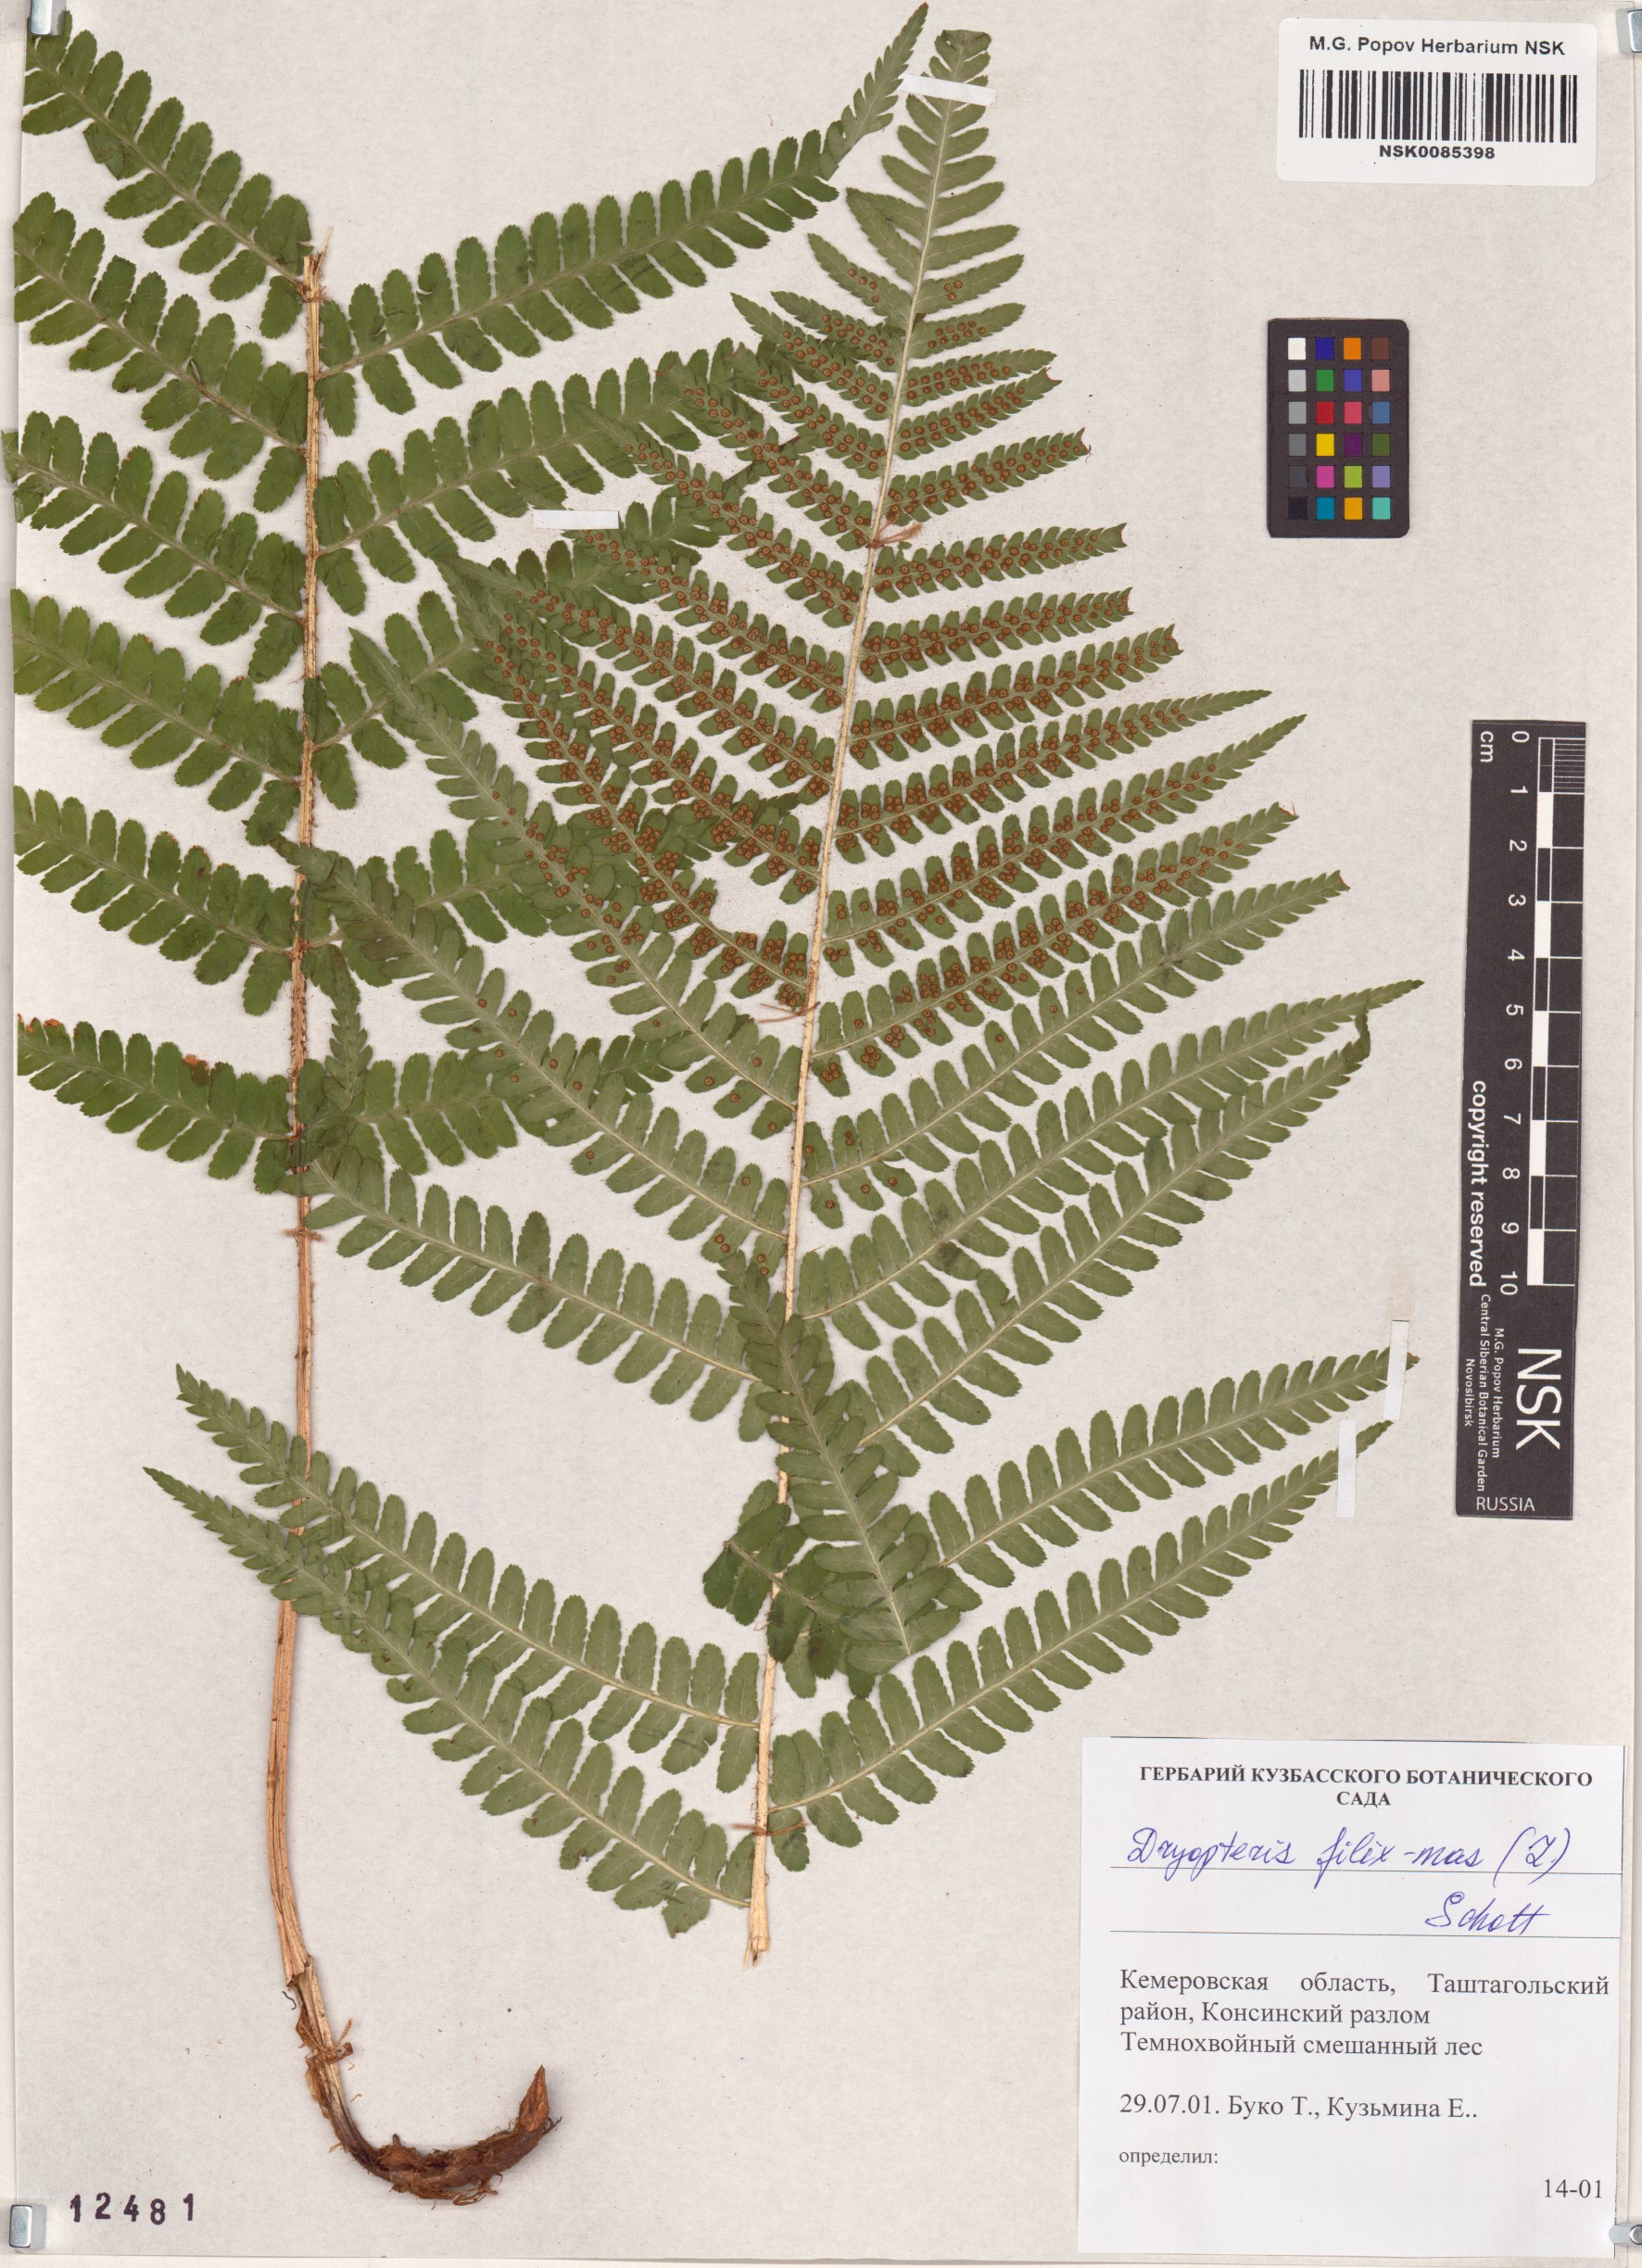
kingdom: Plantae
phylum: Tracheophyta
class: Polypodiopsida
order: Polypodiales
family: Dryopteridaceae
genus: Dryopteris
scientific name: Dryopteris filix-mas
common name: Male fern
